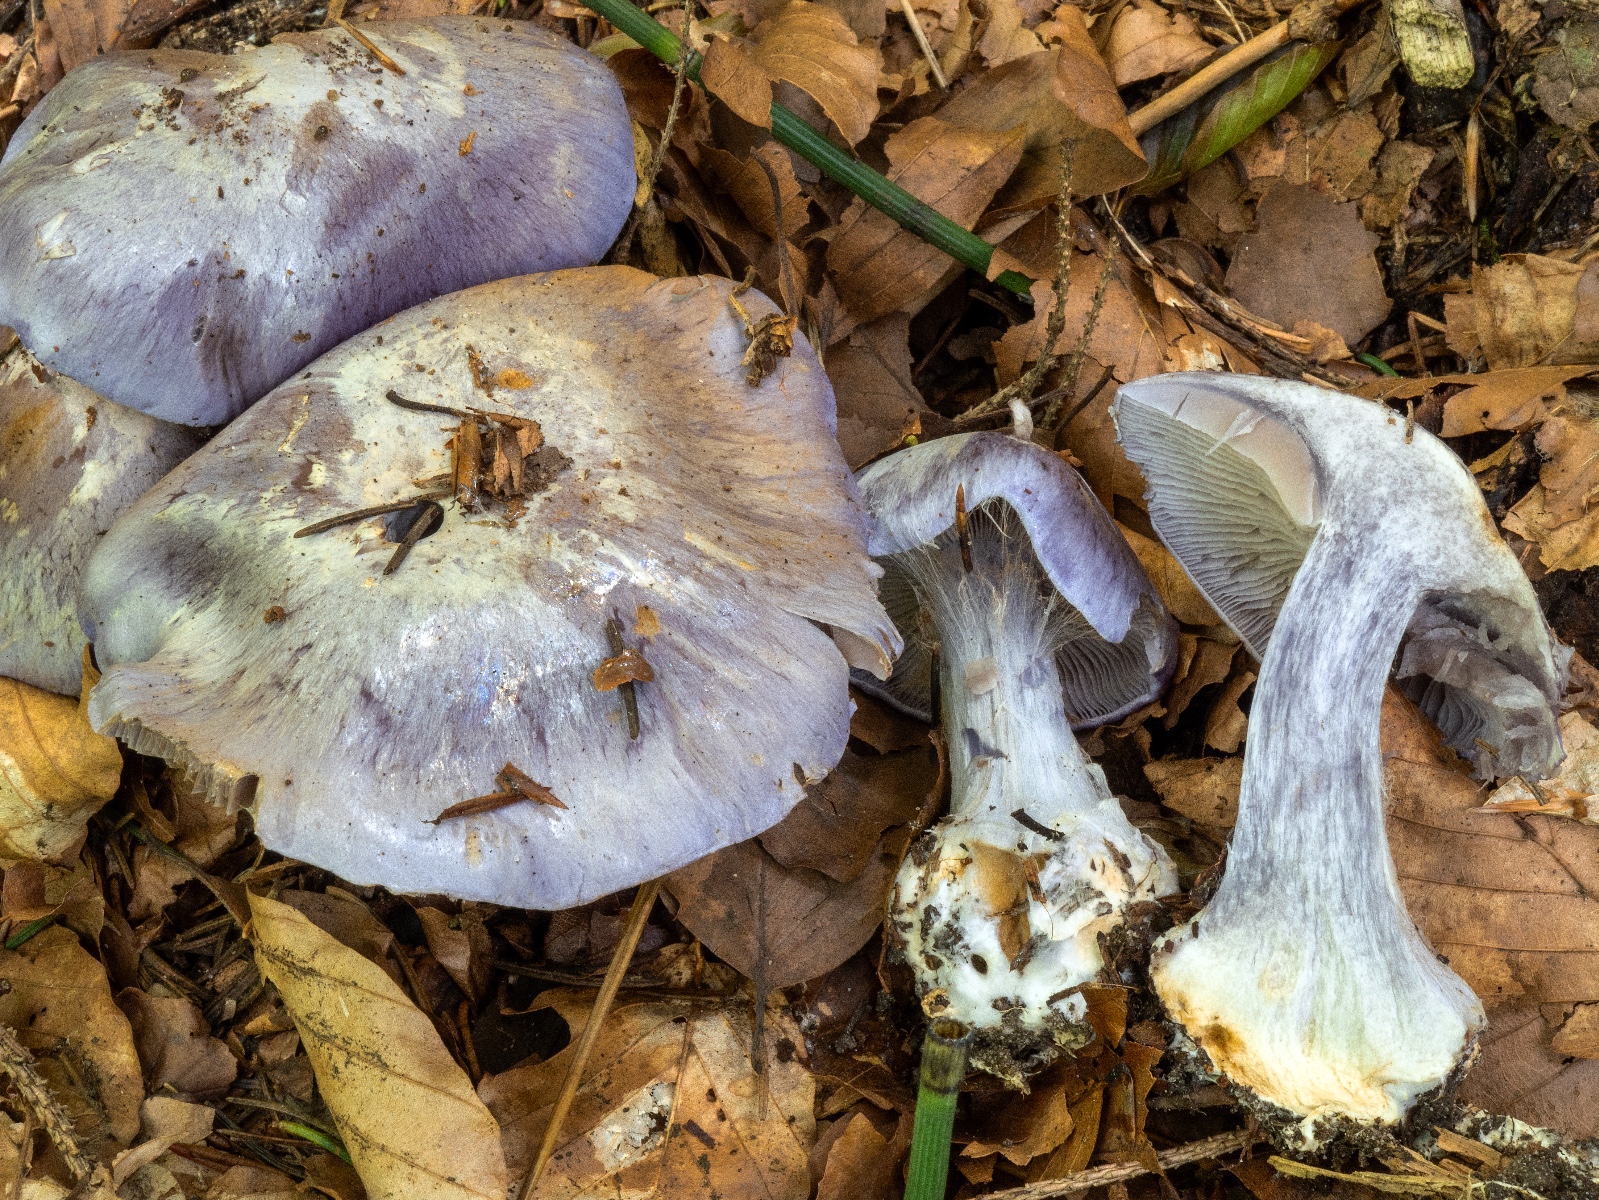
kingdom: Fungi
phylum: Basidiomycota
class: Agaricomycetes
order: Agaricales
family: Cortinariaceae
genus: Cortinarius
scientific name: Cortinarius caerulescens
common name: blåkødet slørhat
